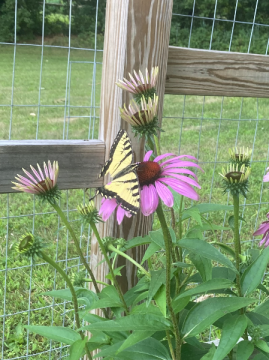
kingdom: Animalia
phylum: Arthropoda
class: Insecta
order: Lepidoptera
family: Papilionidae
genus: Pterourus
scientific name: Pterourus
